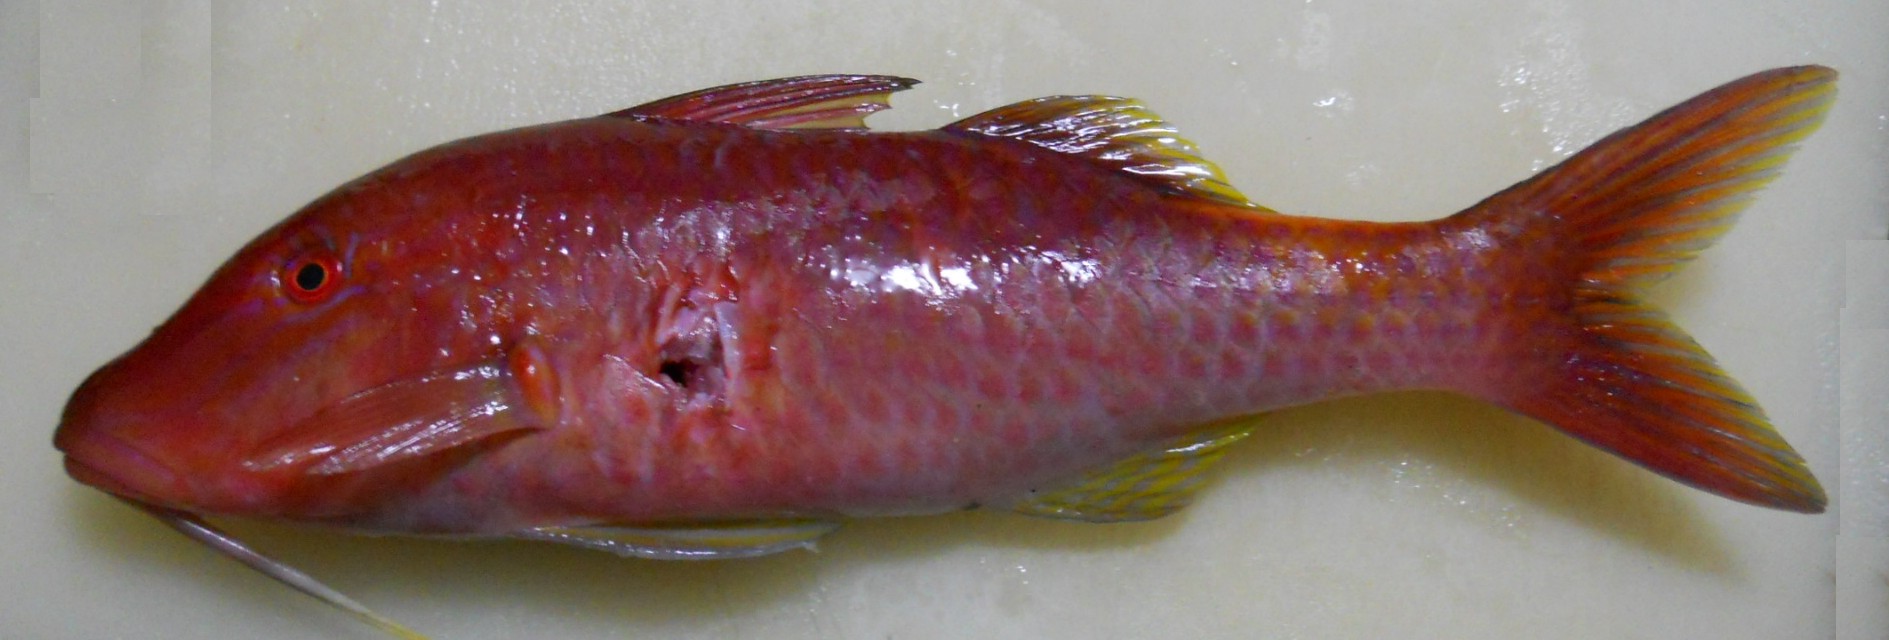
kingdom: Animalia
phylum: Chordata
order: Perciformes
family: Mullidae
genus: Parupeneus
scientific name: Parupeneus cyclostomus
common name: Goldsaddle goatfish
